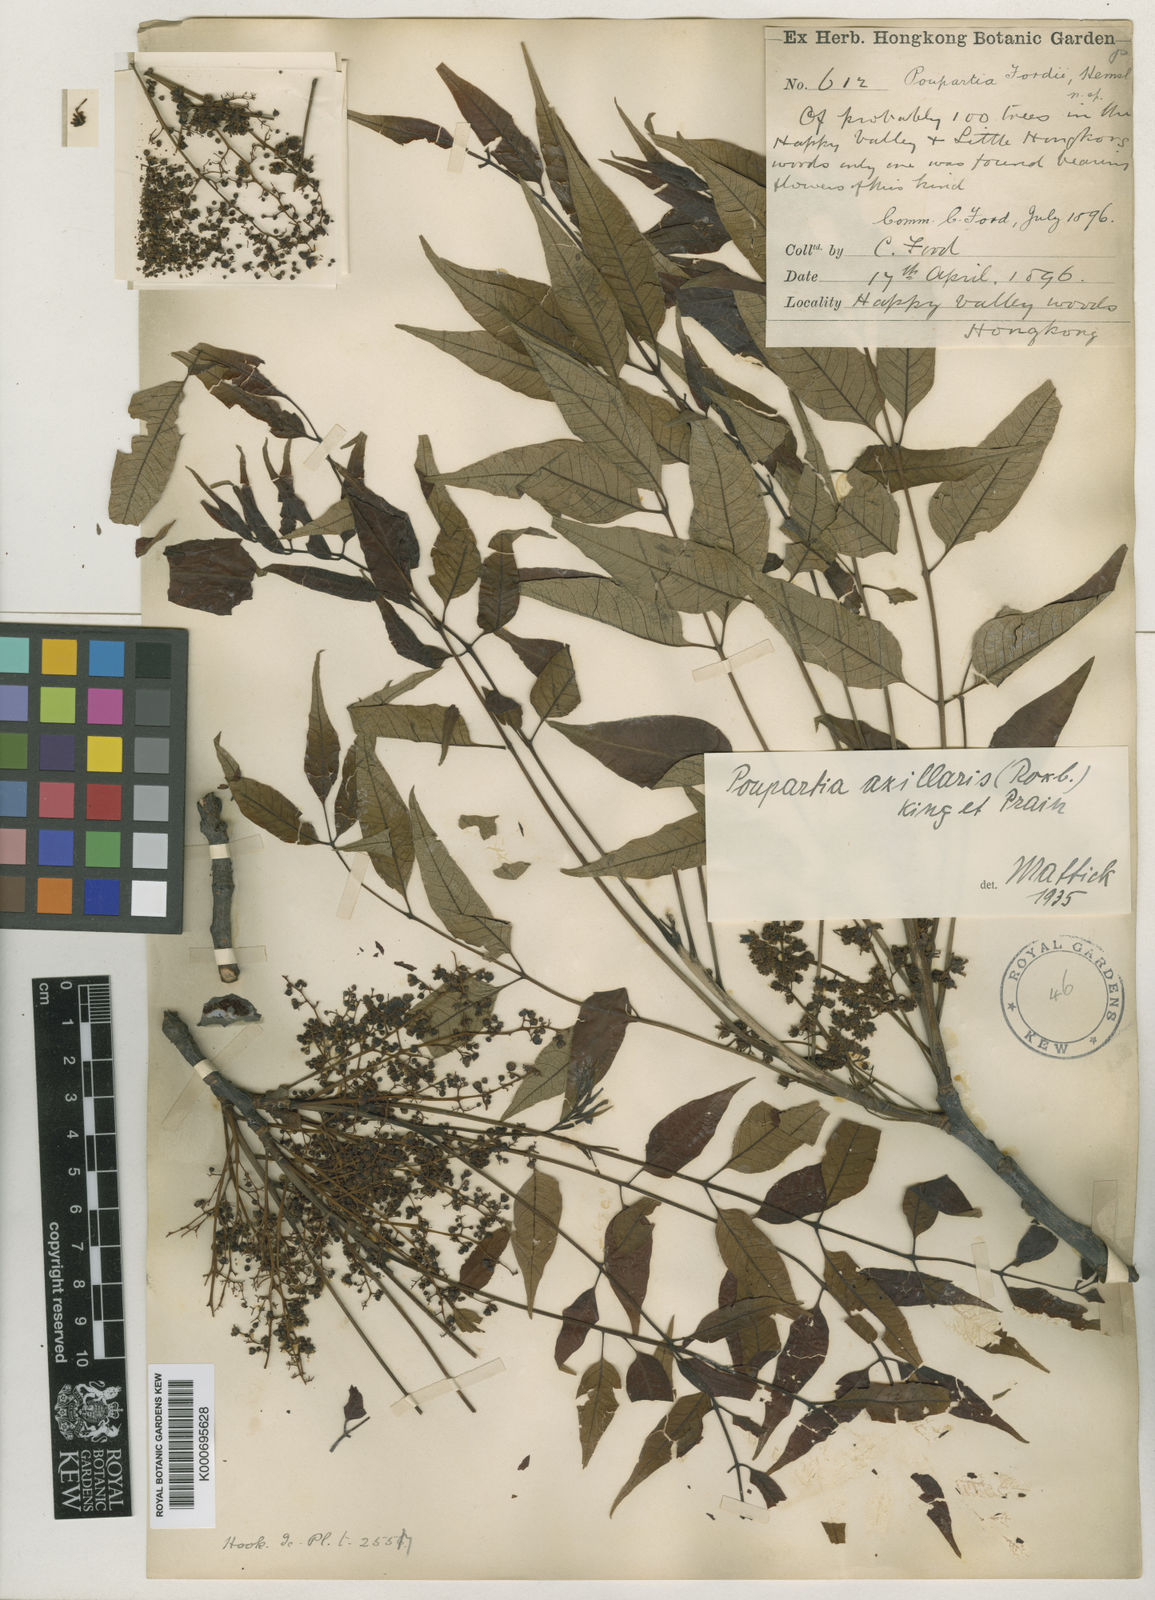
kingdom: Plantae
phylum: Tracheophyta
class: Magnoliopsida
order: Sapindales
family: Anacardiaceae
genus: Choerospondias
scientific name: Choerospondias axillaris
